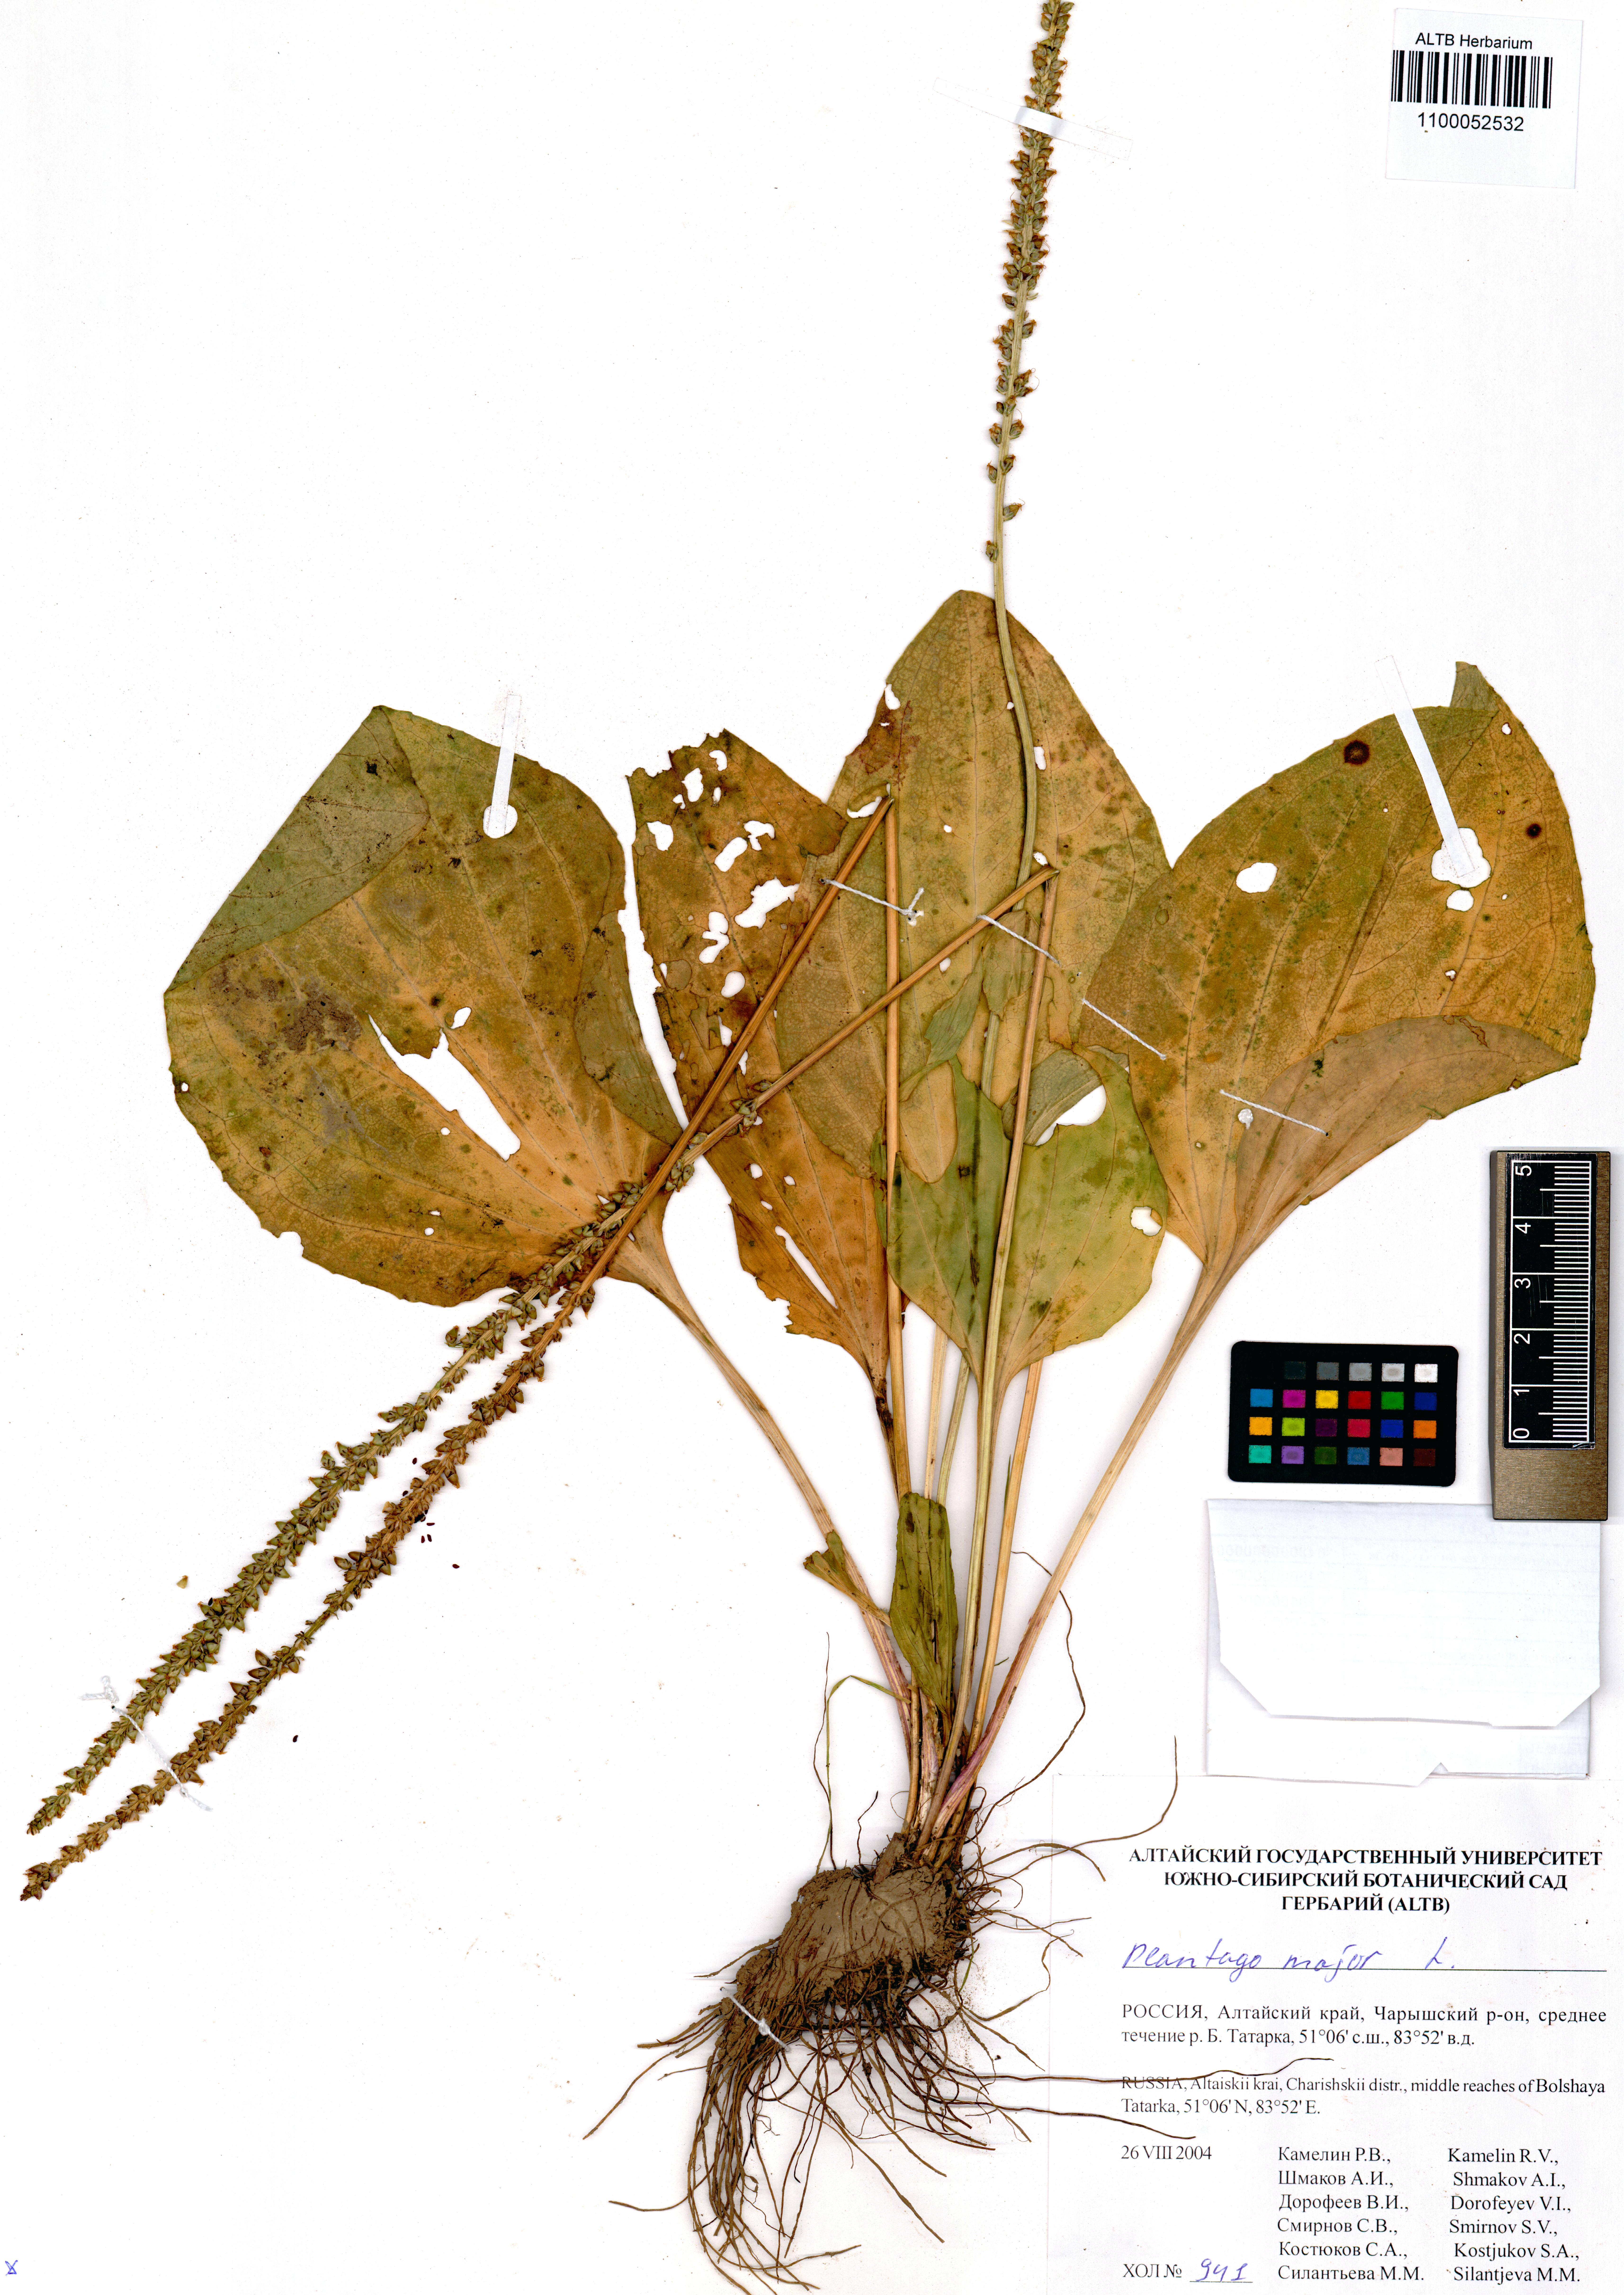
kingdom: Plantae
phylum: Tracheophyta
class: Magnoliopsida
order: Lamiales
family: Plantaginaceae
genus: Plantago
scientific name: Plantago major
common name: Common plantain
